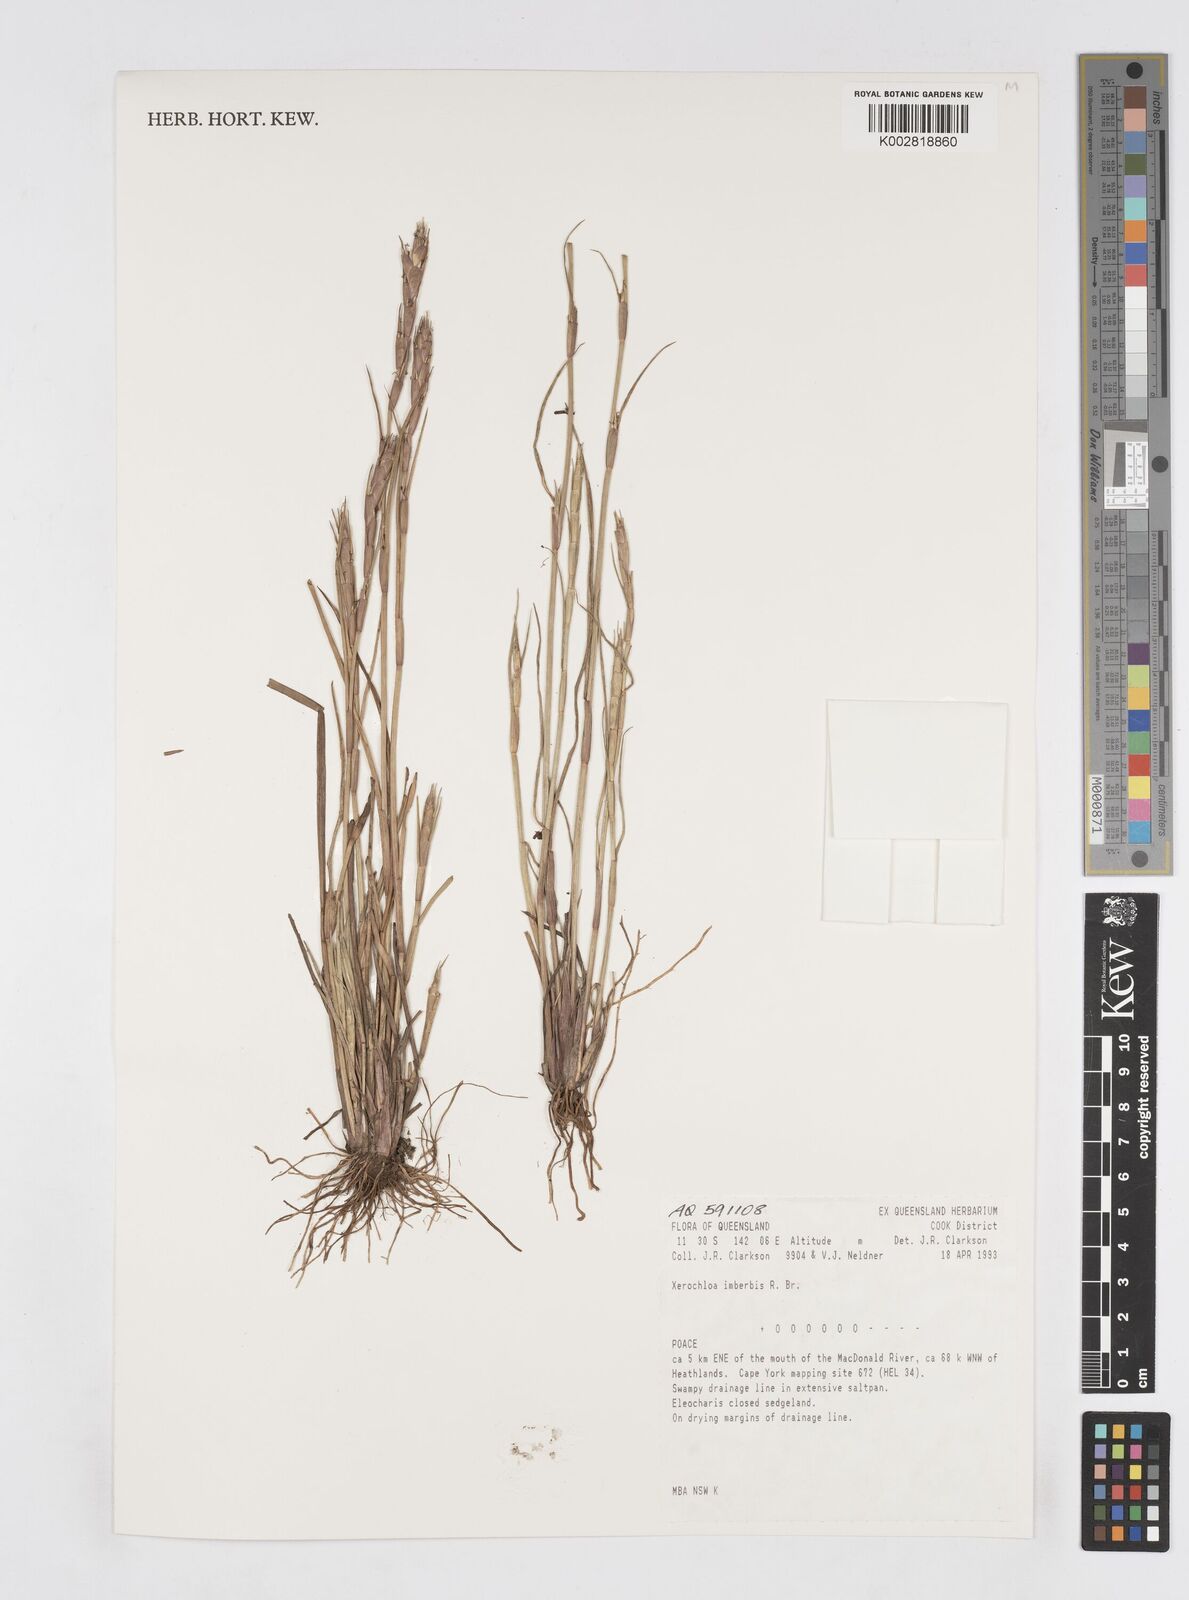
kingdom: Plantae
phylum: Tracheophyta
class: Liliopsida
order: Poales
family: Poaceae
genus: Xerochloa
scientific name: Xerochloa imberbis
